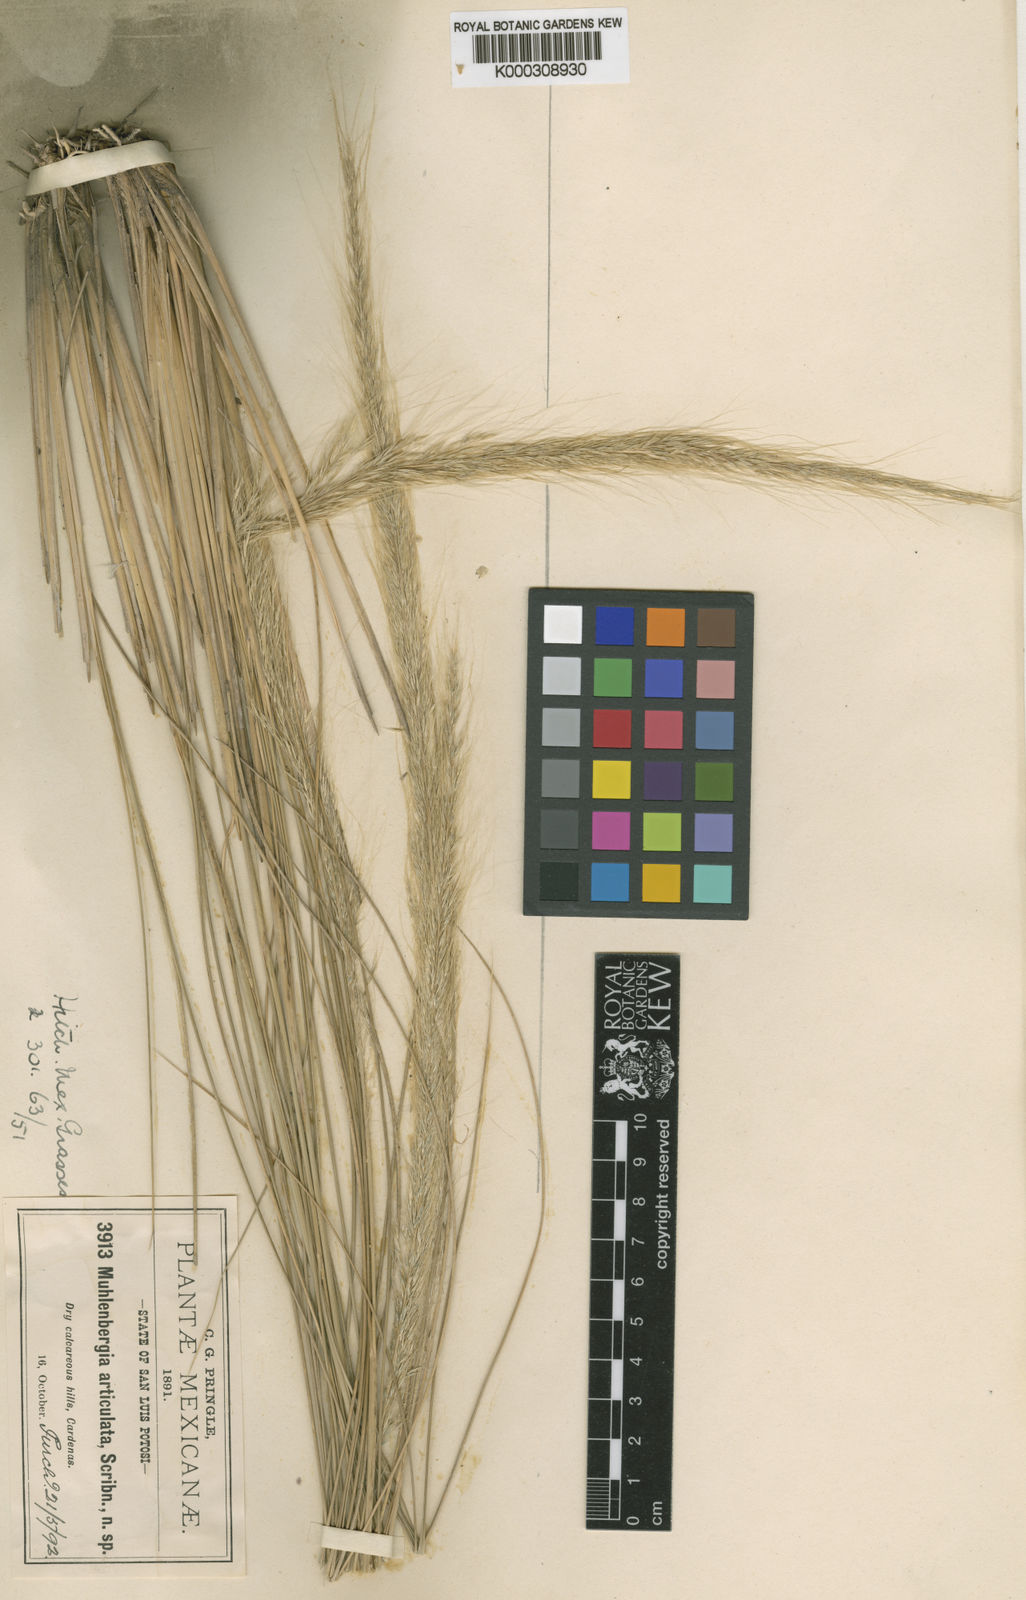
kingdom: Plantae
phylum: Tracheophyta
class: Liliopsida
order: Poales
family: Poaceae
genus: Muhlenbergia
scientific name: Muhlenbergia articulata
